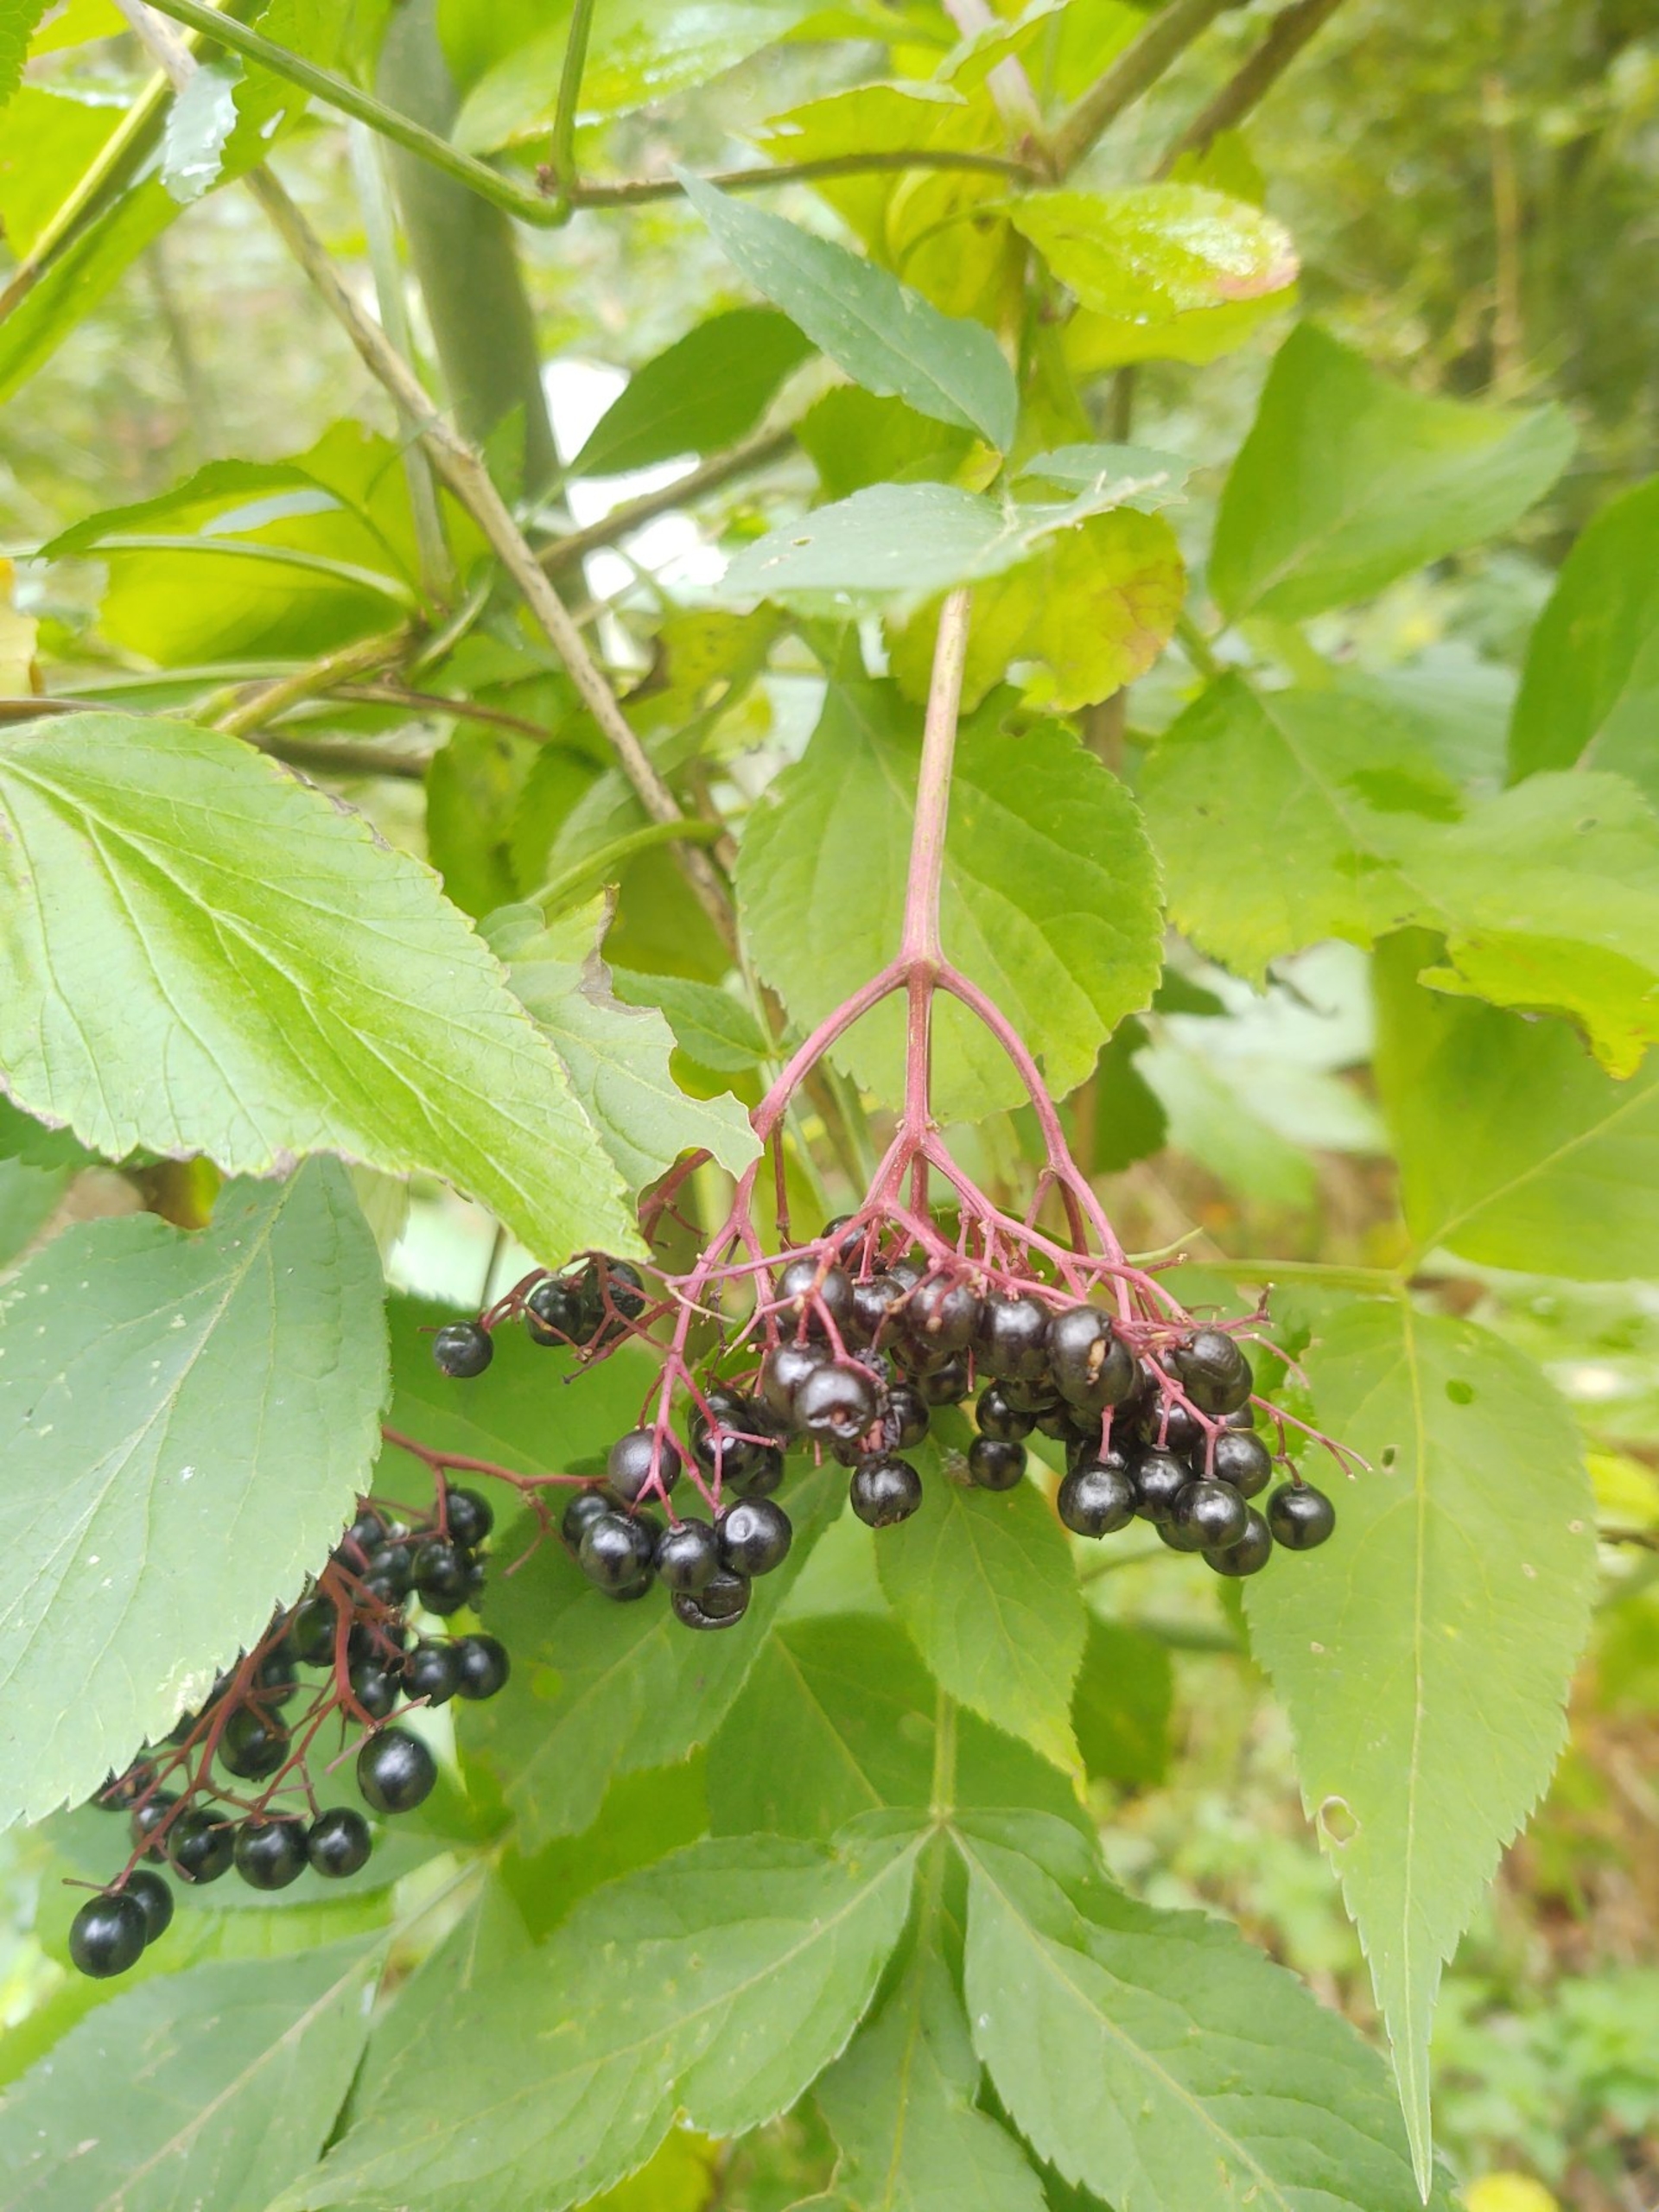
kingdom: Plantae
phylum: Tracheophyta
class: Magnoliopsida
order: Dipsacales
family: Viburnaceae
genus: Sambucus
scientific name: Sambucus nigra
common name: Almindelig hyld
